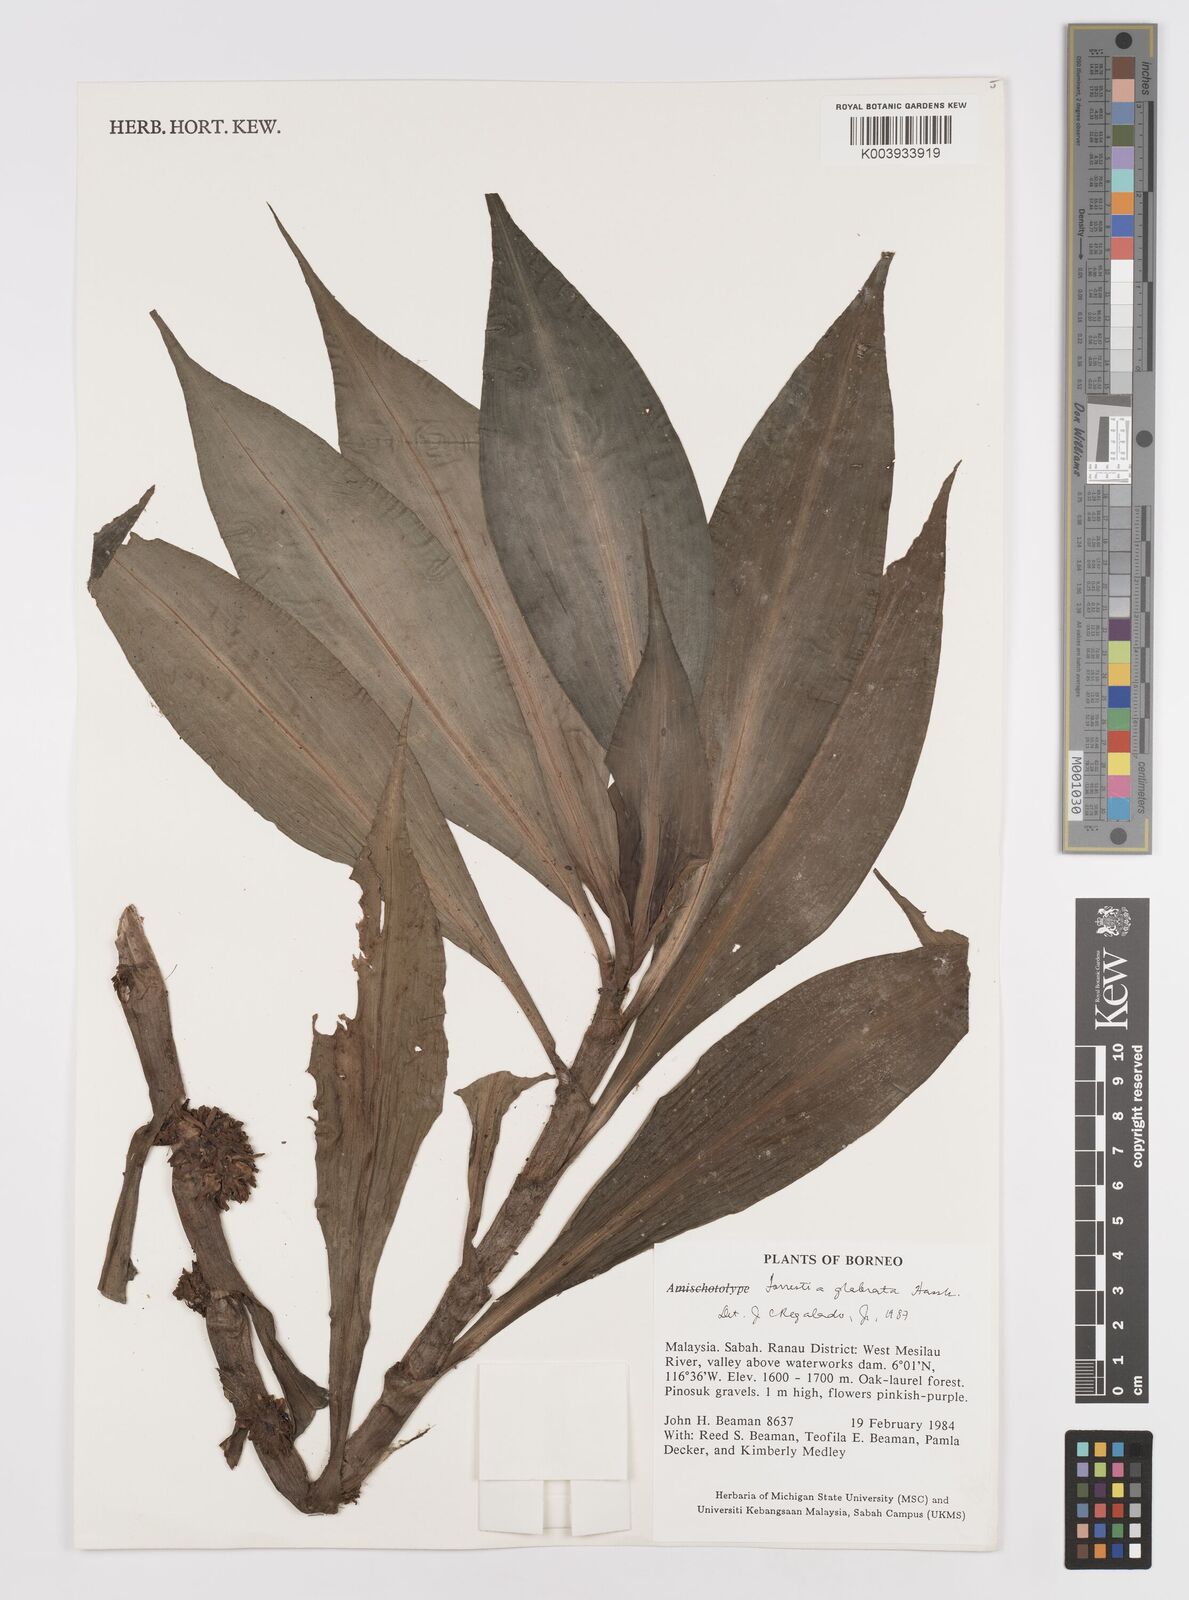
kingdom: Plantae
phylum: Tracheophyta
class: Liliopsida
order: Commelinales
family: Commelinaceae
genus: Amischotolype
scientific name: Amischotolype glabrata
